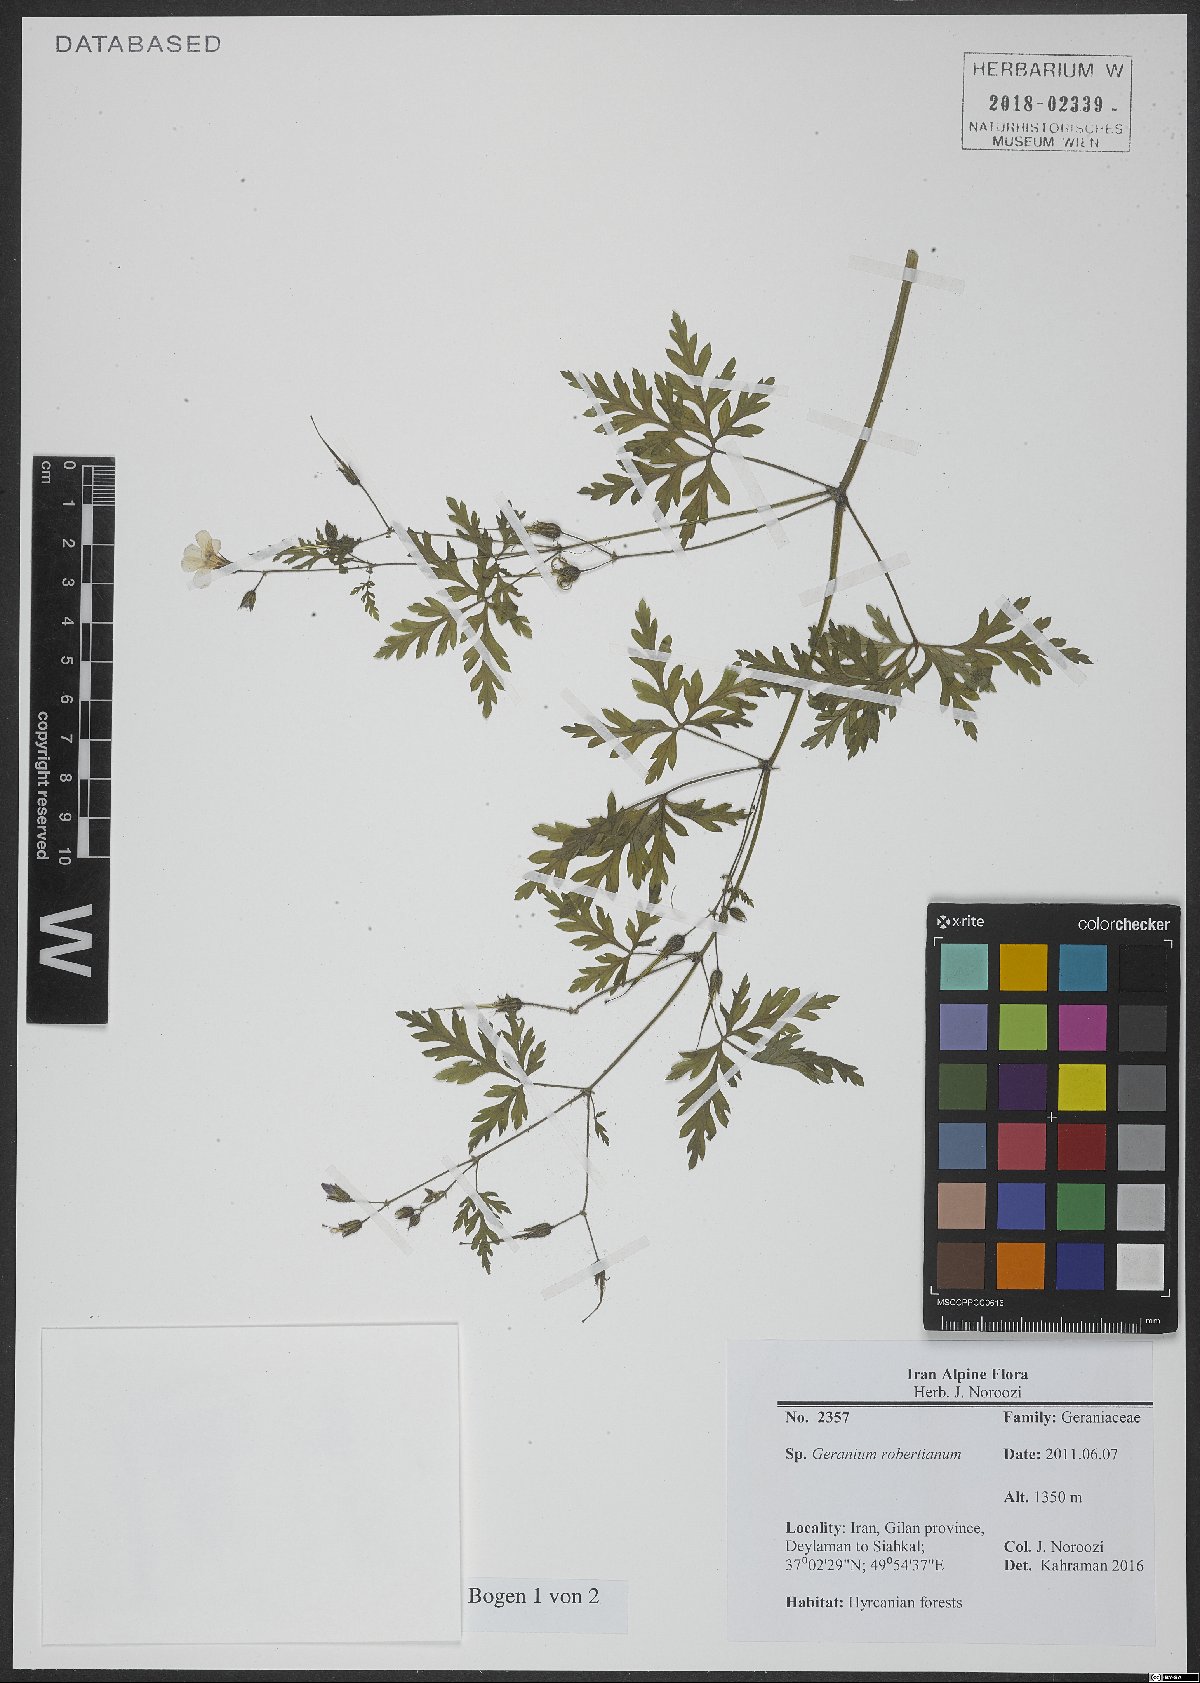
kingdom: Plantae
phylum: Tracheophyta
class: Magnoliopsida
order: Geraniales
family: Geraniaceae
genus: Geranium
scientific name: Geranium robertianum
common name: Herb-robert
